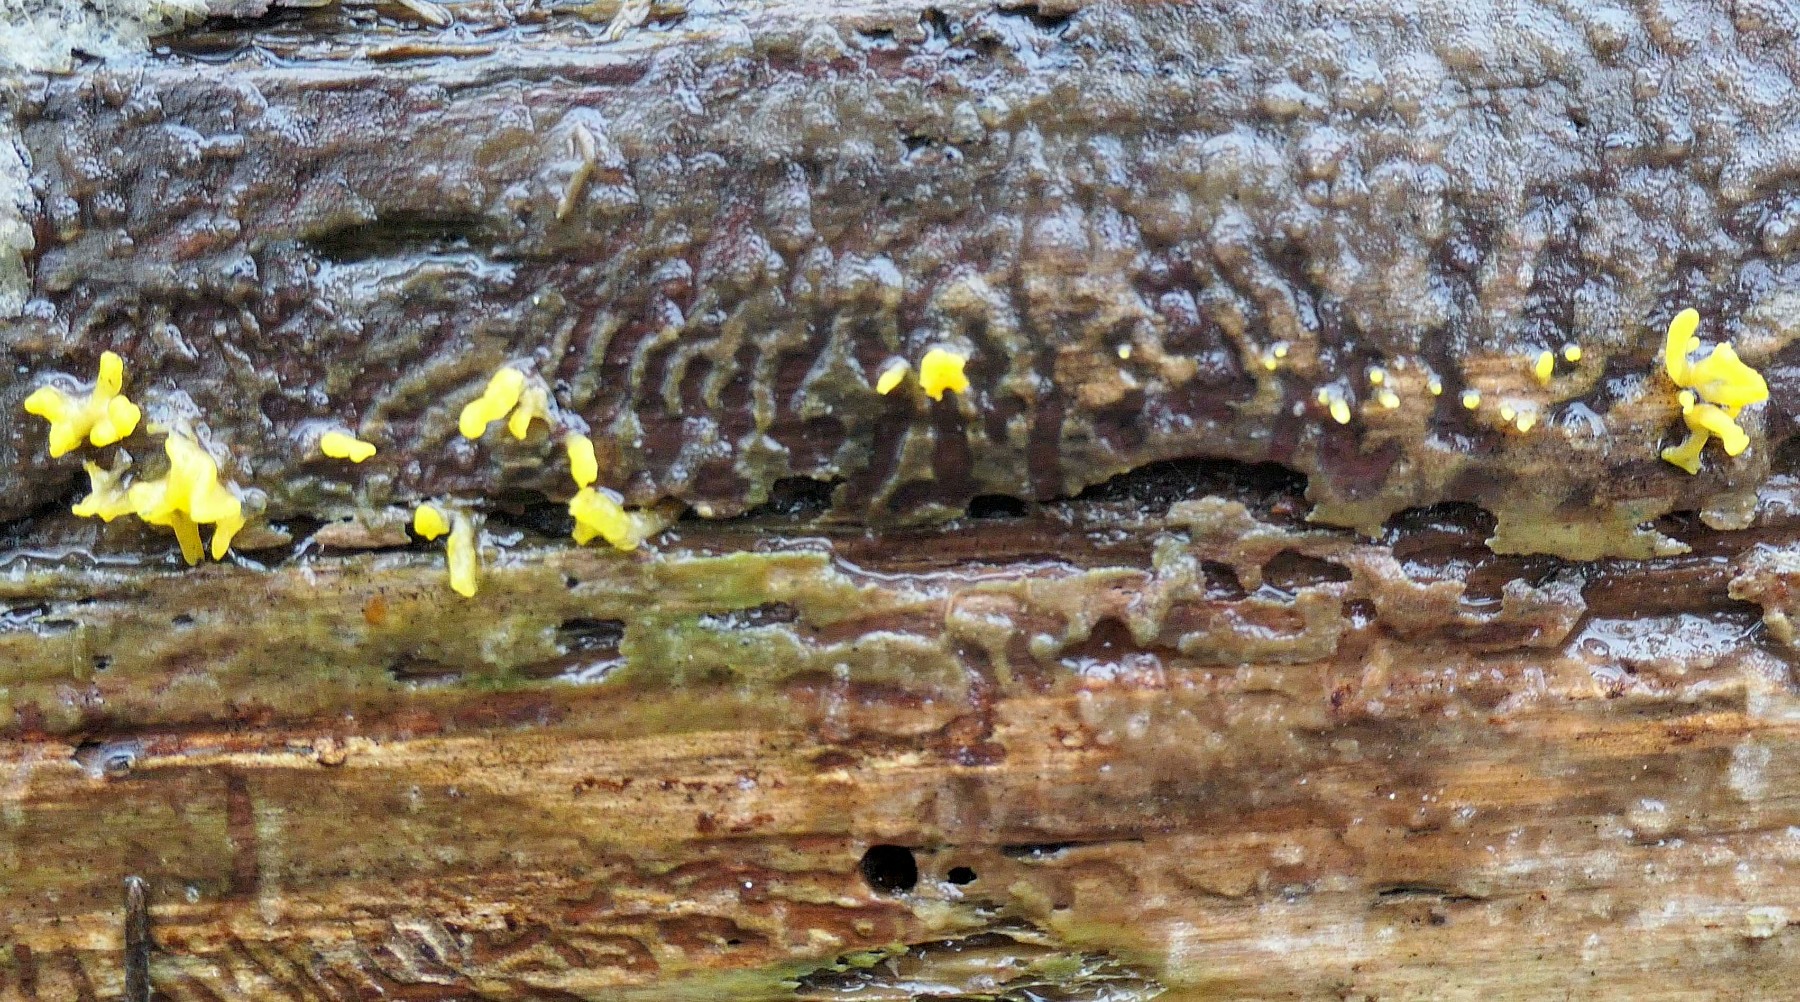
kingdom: Fungi
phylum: Basidiomycota
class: Dacrymycetes
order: Dacrymycetales
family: Dacrymycetaceae
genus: Calocera
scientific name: Calocera furcata
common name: fyrre-guldgaffel
